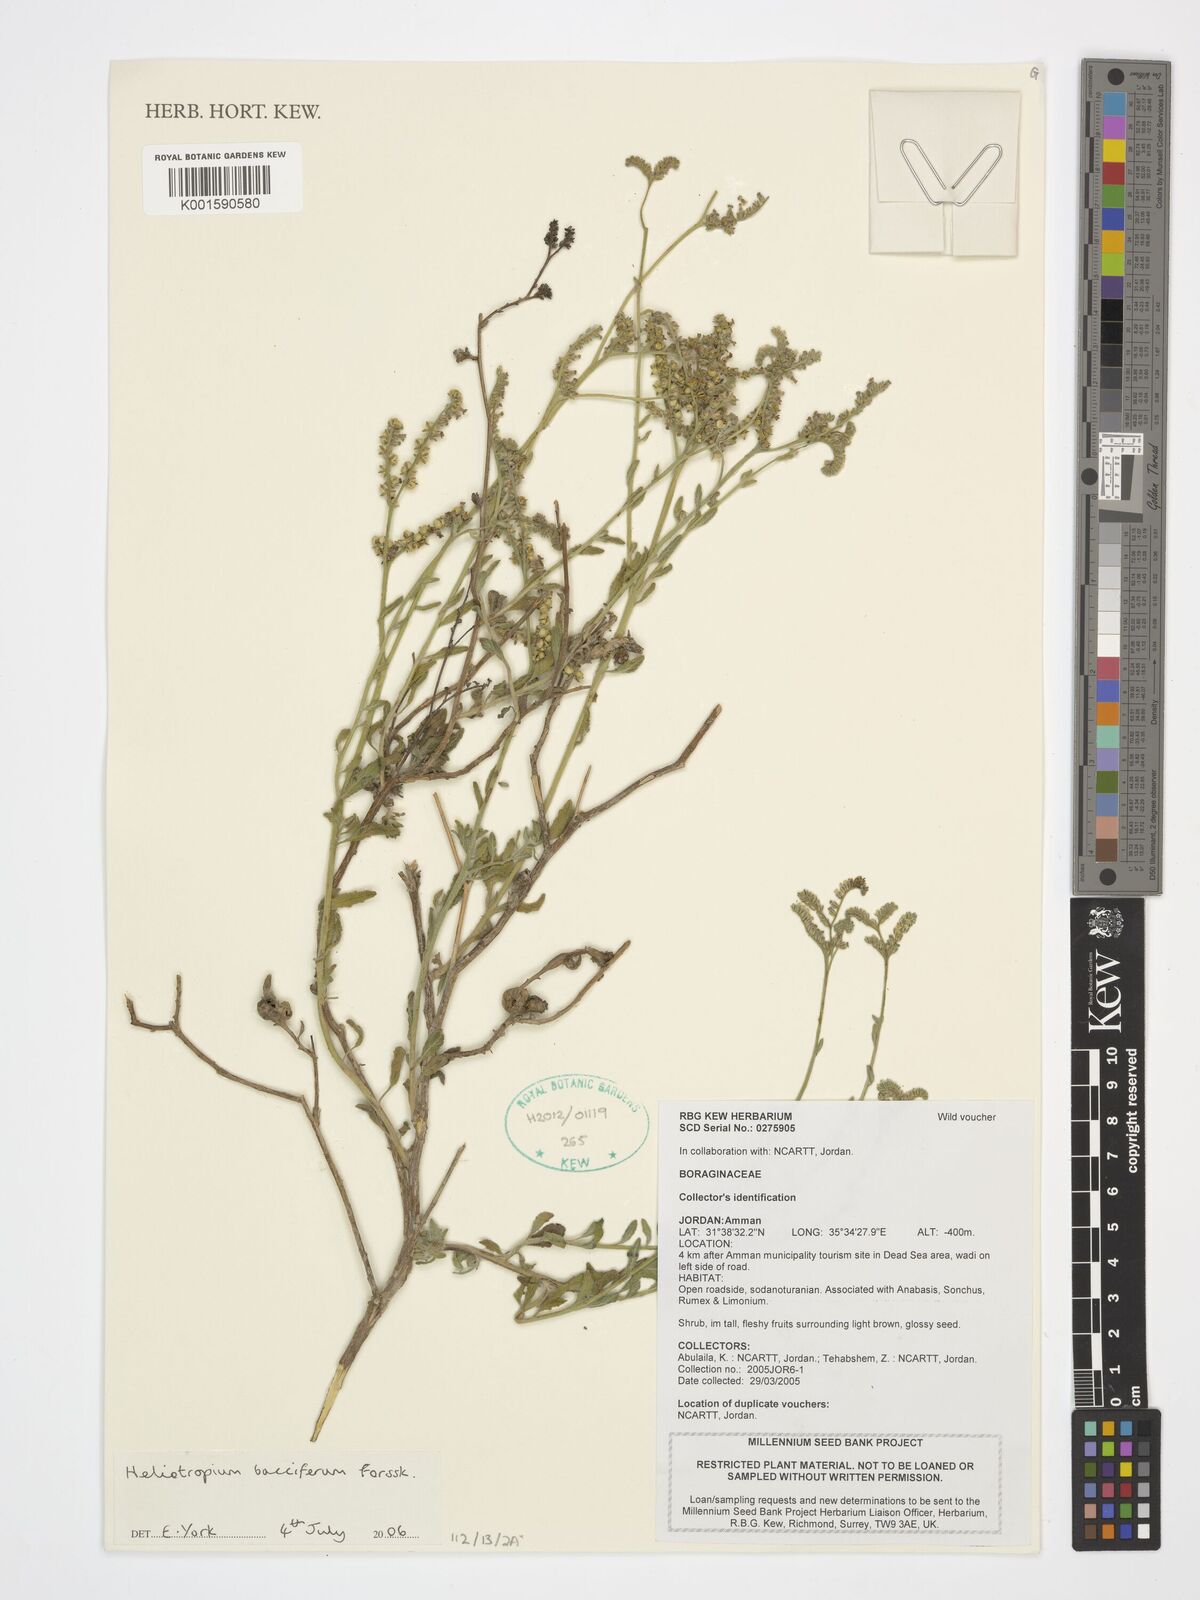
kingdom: Plantae
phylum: Tracheophyta
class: Magnoliopsida
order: Boraginales
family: Heliotropiaceae
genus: Heliotropium
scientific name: Heliotropium bacciferum
